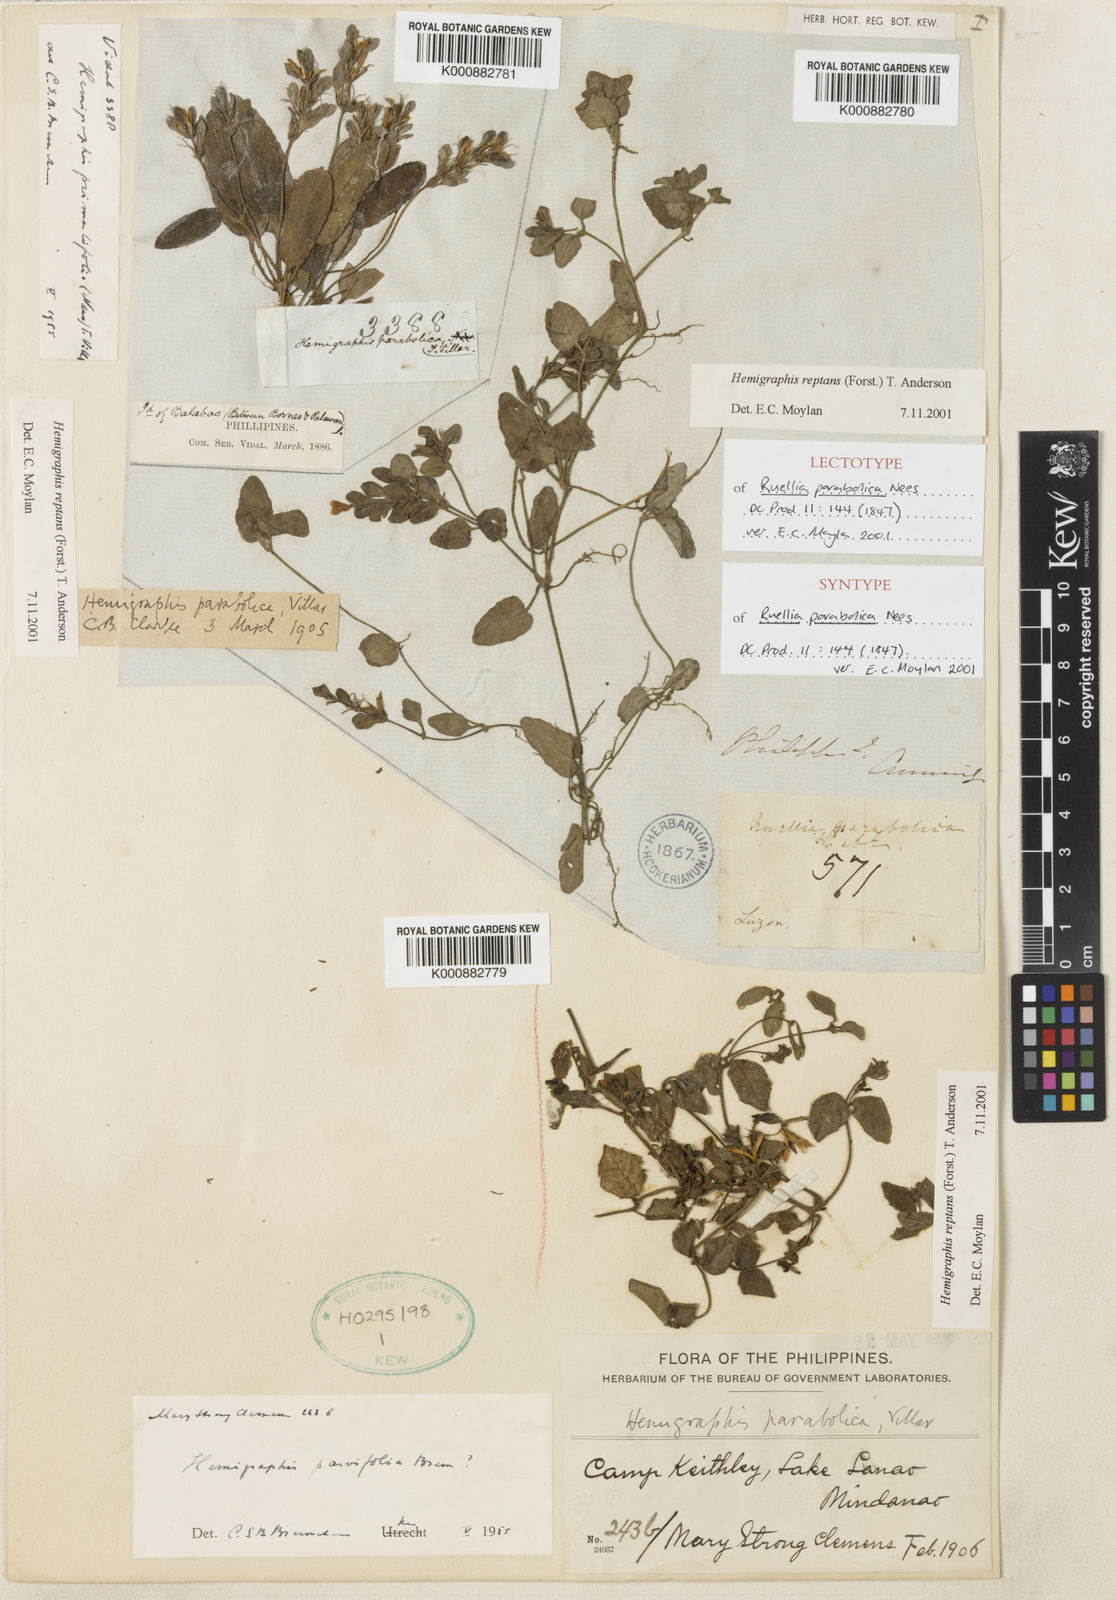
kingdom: Plantae
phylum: Tracheophyta
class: Magnoliopsida
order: Lamiales
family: Acanthaceae
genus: Strobilanthes
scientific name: Strobilanthes reptans
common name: Acanthaceae
